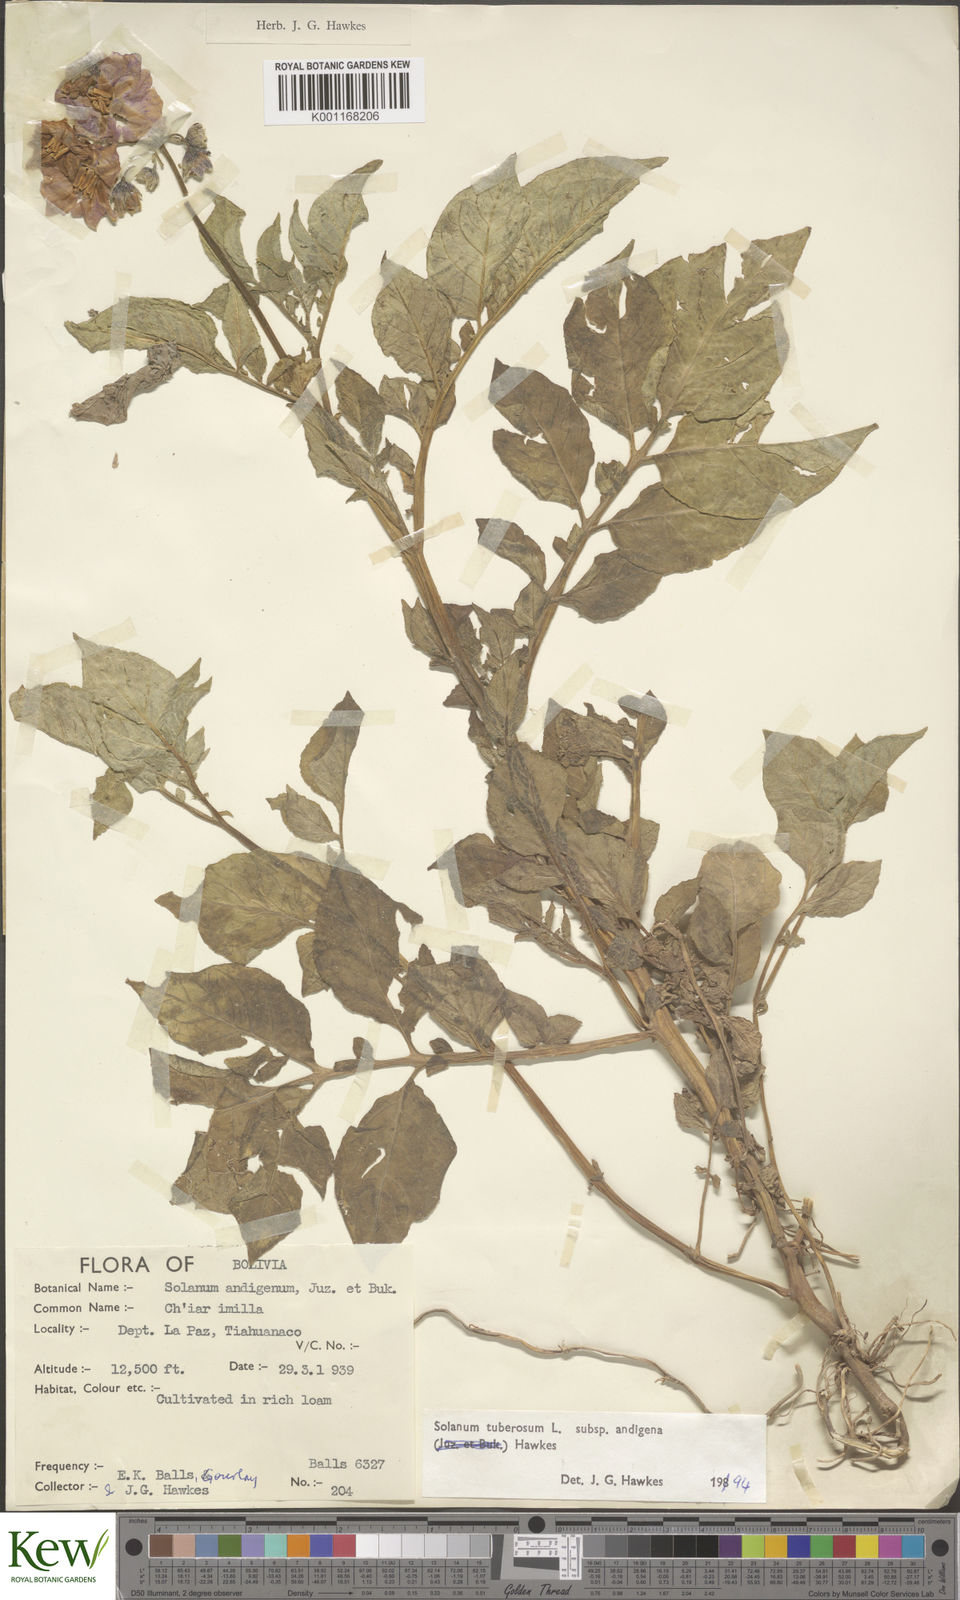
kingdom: Plantae
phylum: Tracheophyta
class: Magnoliopsida
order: Solanales
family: Solanaceae
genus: Solanum
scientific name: Solanum tuberosum
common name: Potato
